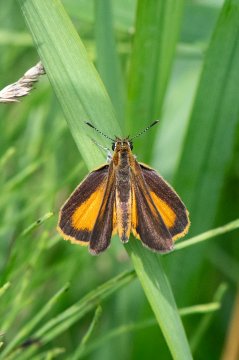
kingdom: Animalia
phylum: Arthropoda
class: Insecta
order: Lepidoptera
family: Hesperiidae
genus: Ancyloxypha
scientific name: Ancyloxypha numitor
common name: Least Skipper
